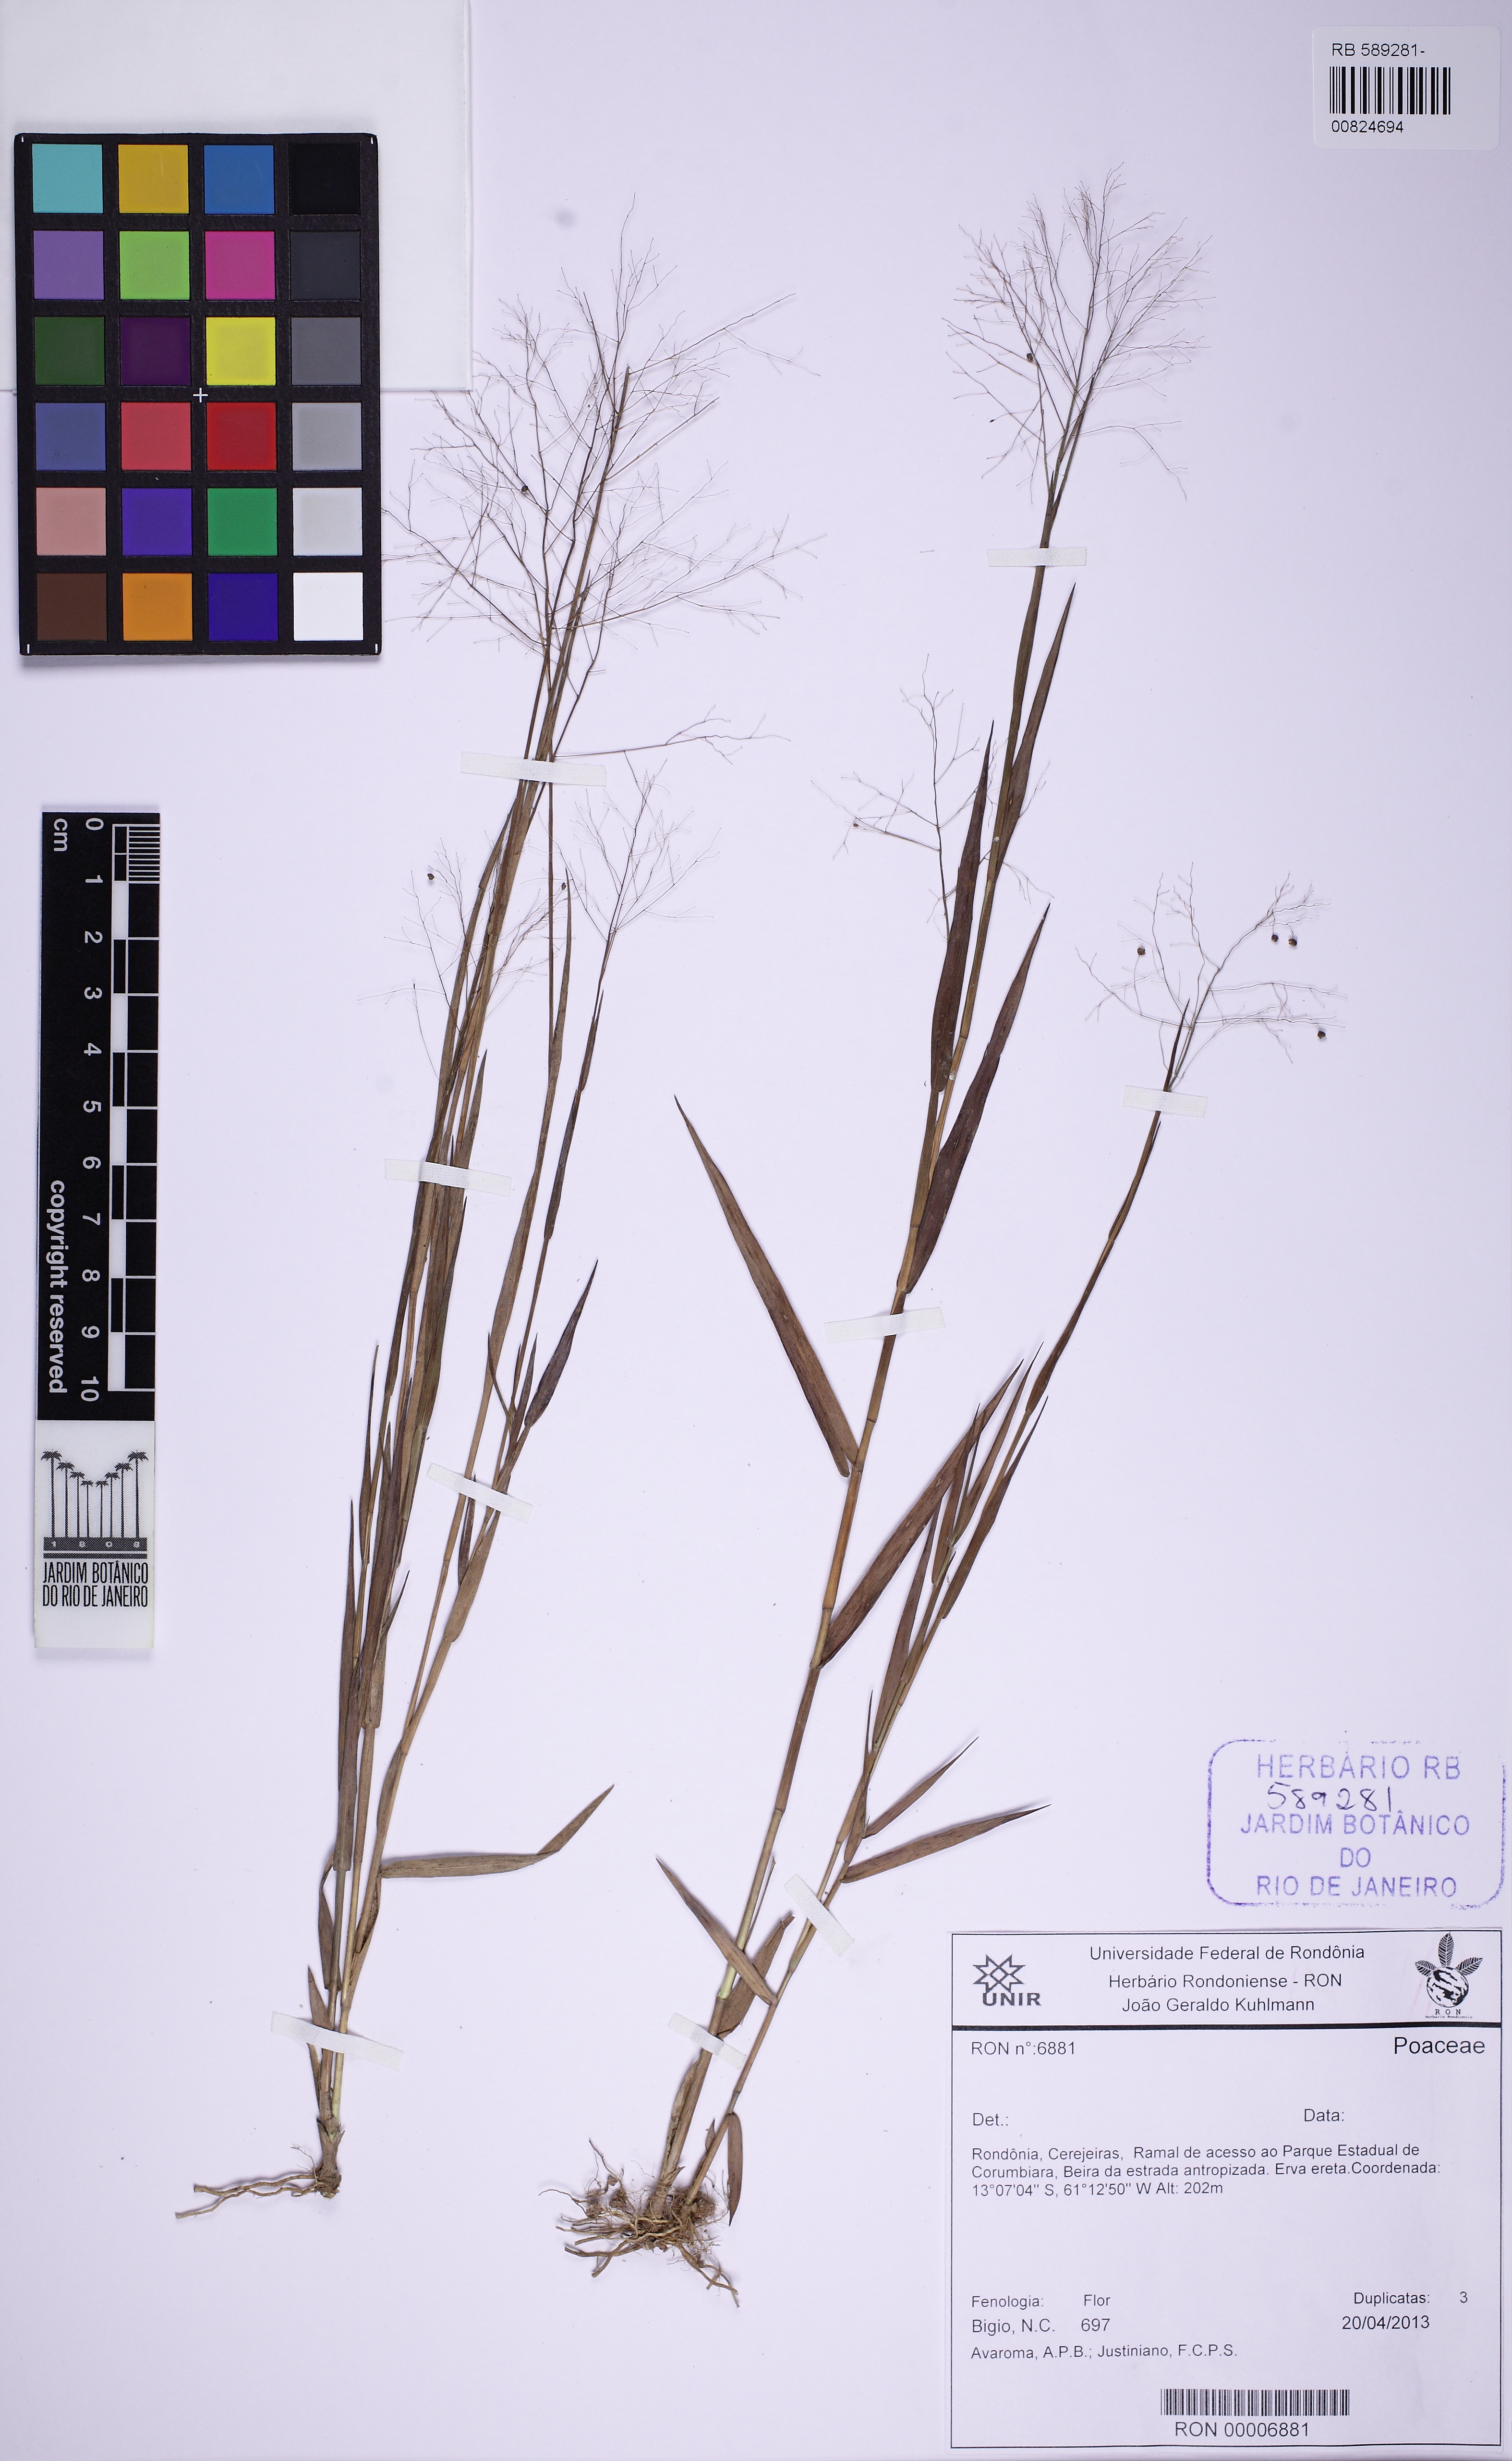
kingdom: Plantae
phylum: Tracheophyta
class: Liliopsida
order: Poales
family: Poaceae
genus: Trichanthecium
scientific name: Trichanthecium nervosum
